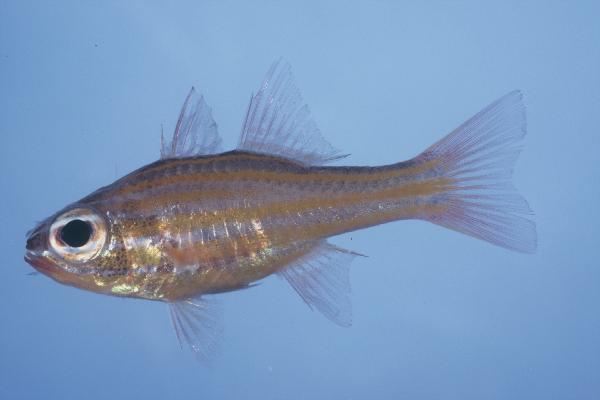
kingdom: Animalia
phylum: Chordata
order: Perciformes
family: Apogonidae
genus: Ostorhinchus
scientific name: Ostorhinchus cyanosoma
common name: Yellow-striped cardinalfish
